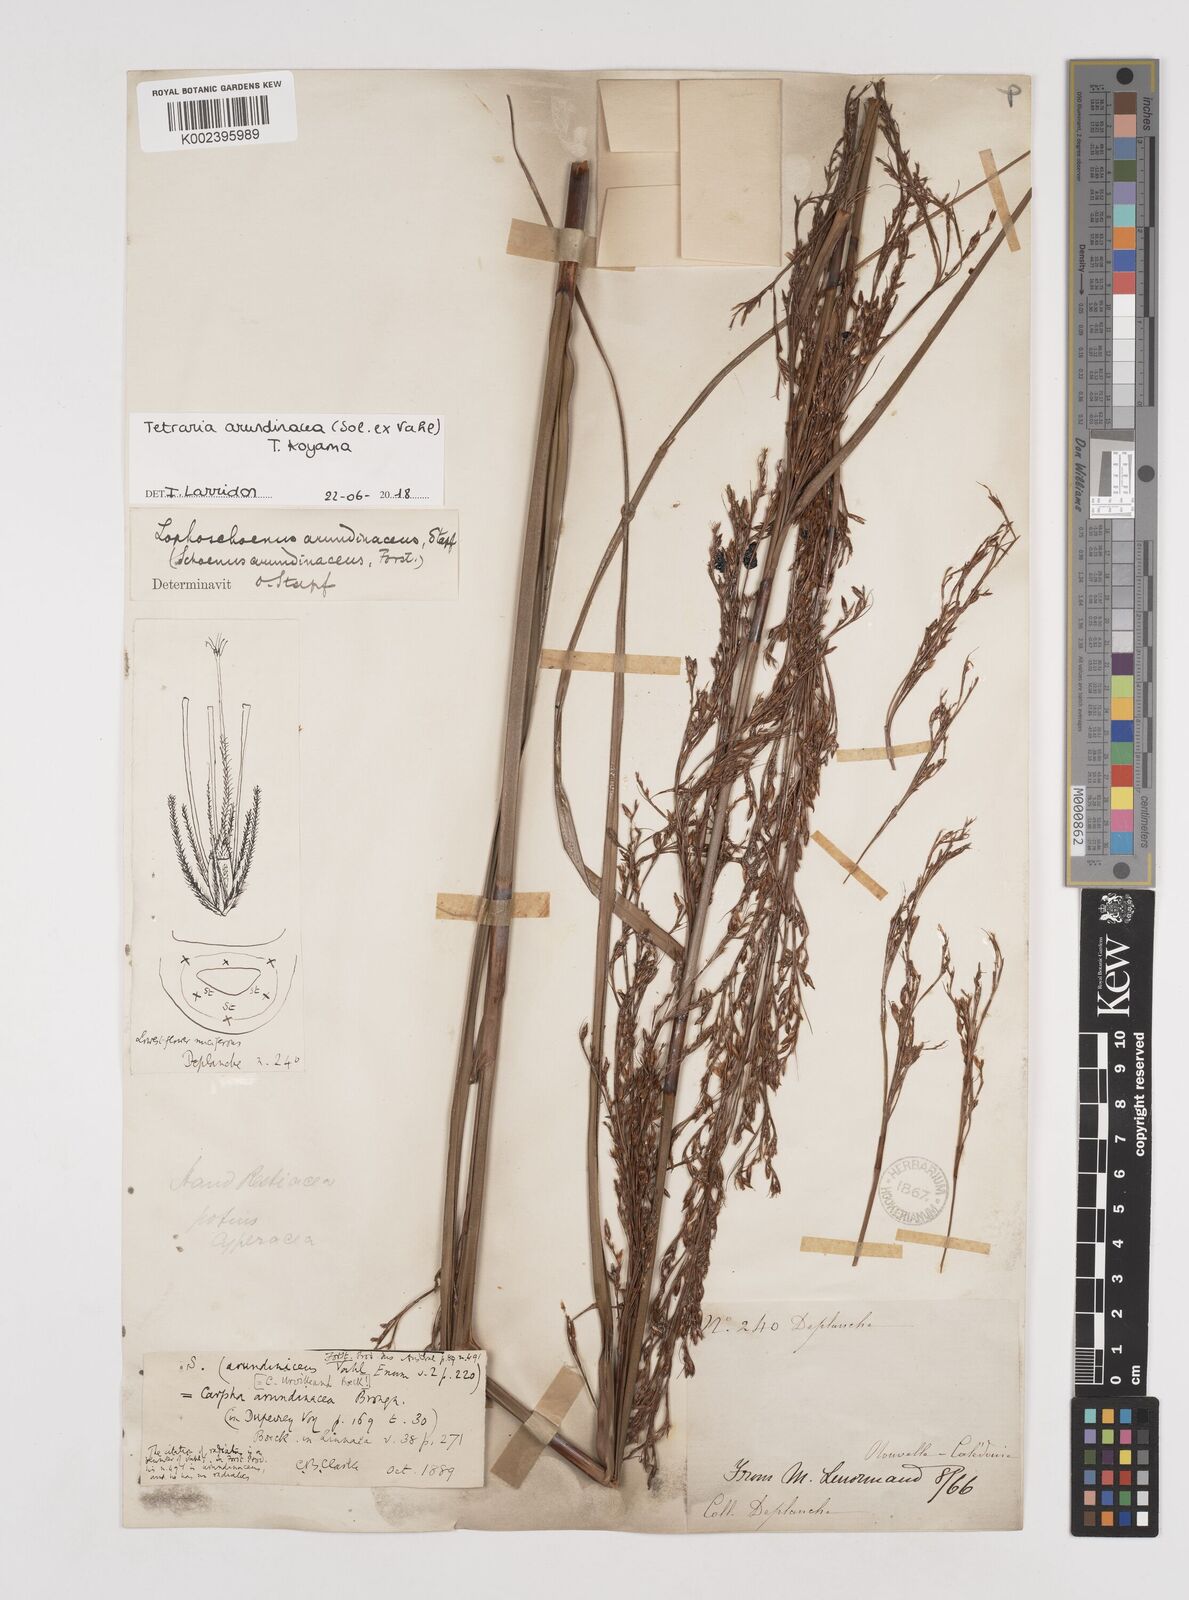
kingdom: Plantae
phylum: Tracheophyta
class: Liliopsida
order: Poales
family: Cyperaceae
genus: Tetraria
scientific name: Tetraria arundinacea
